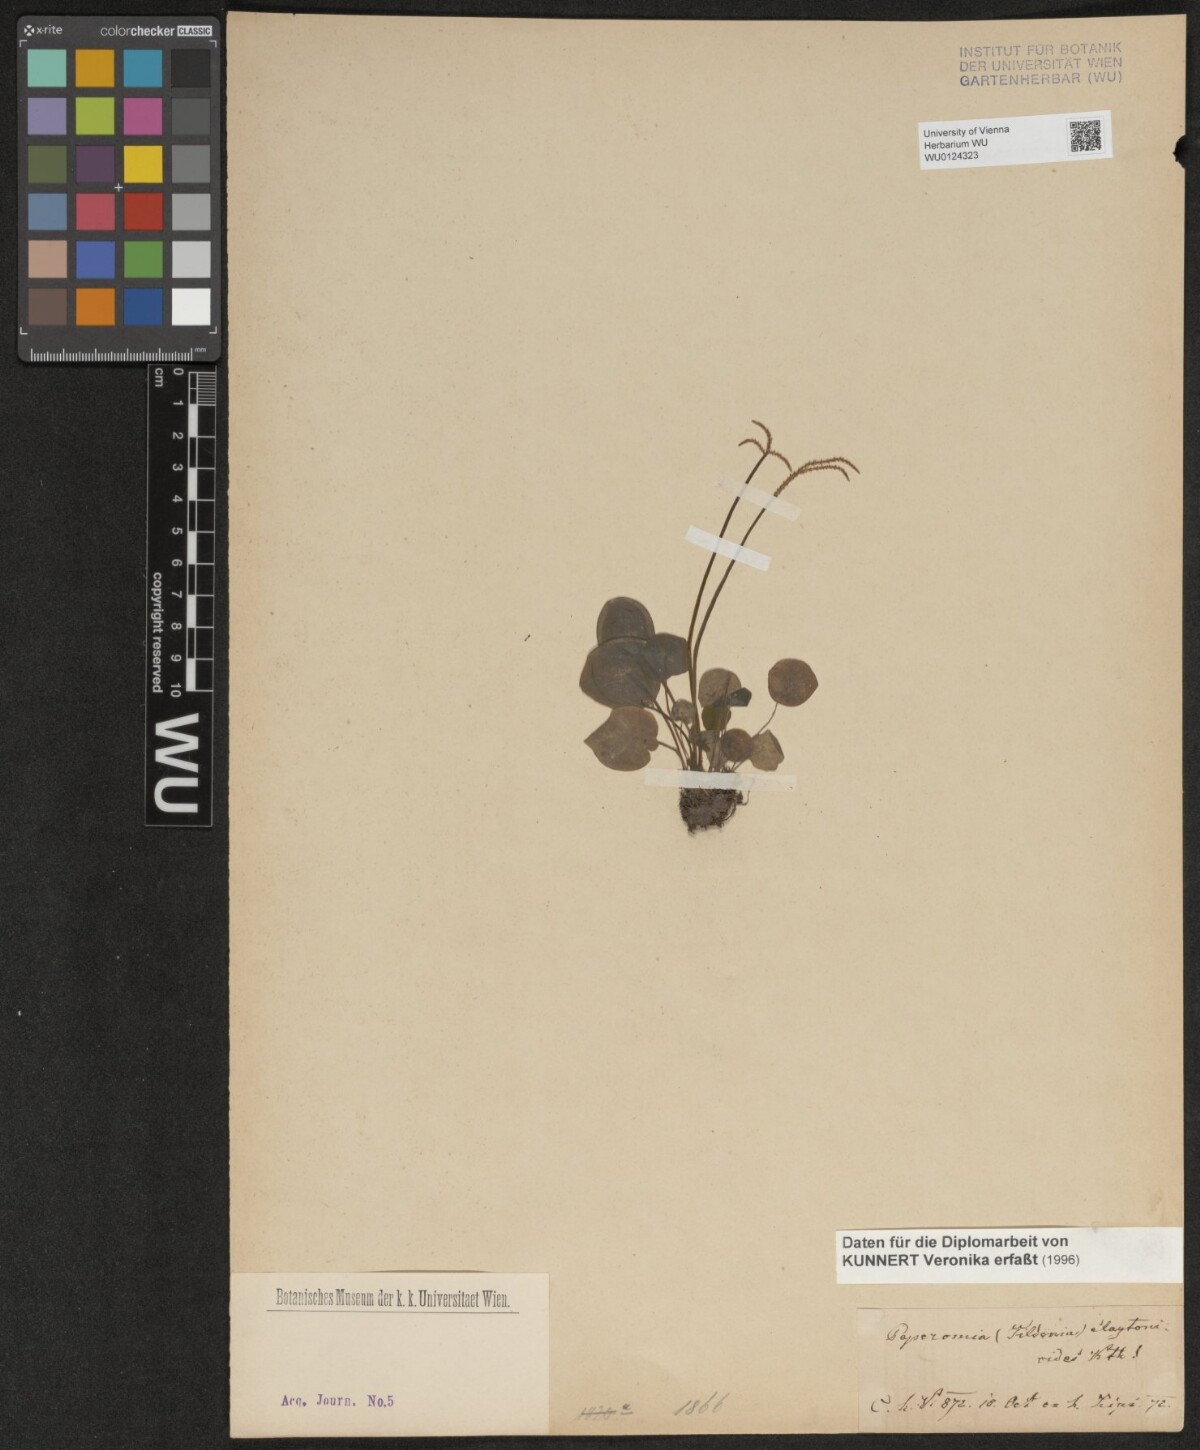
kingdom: Plantae
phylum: Tracheophyta
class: Magnoliopsida
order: Piperales
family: Piperaceae
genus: Peperomia
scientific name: Peperomia claytonioides
